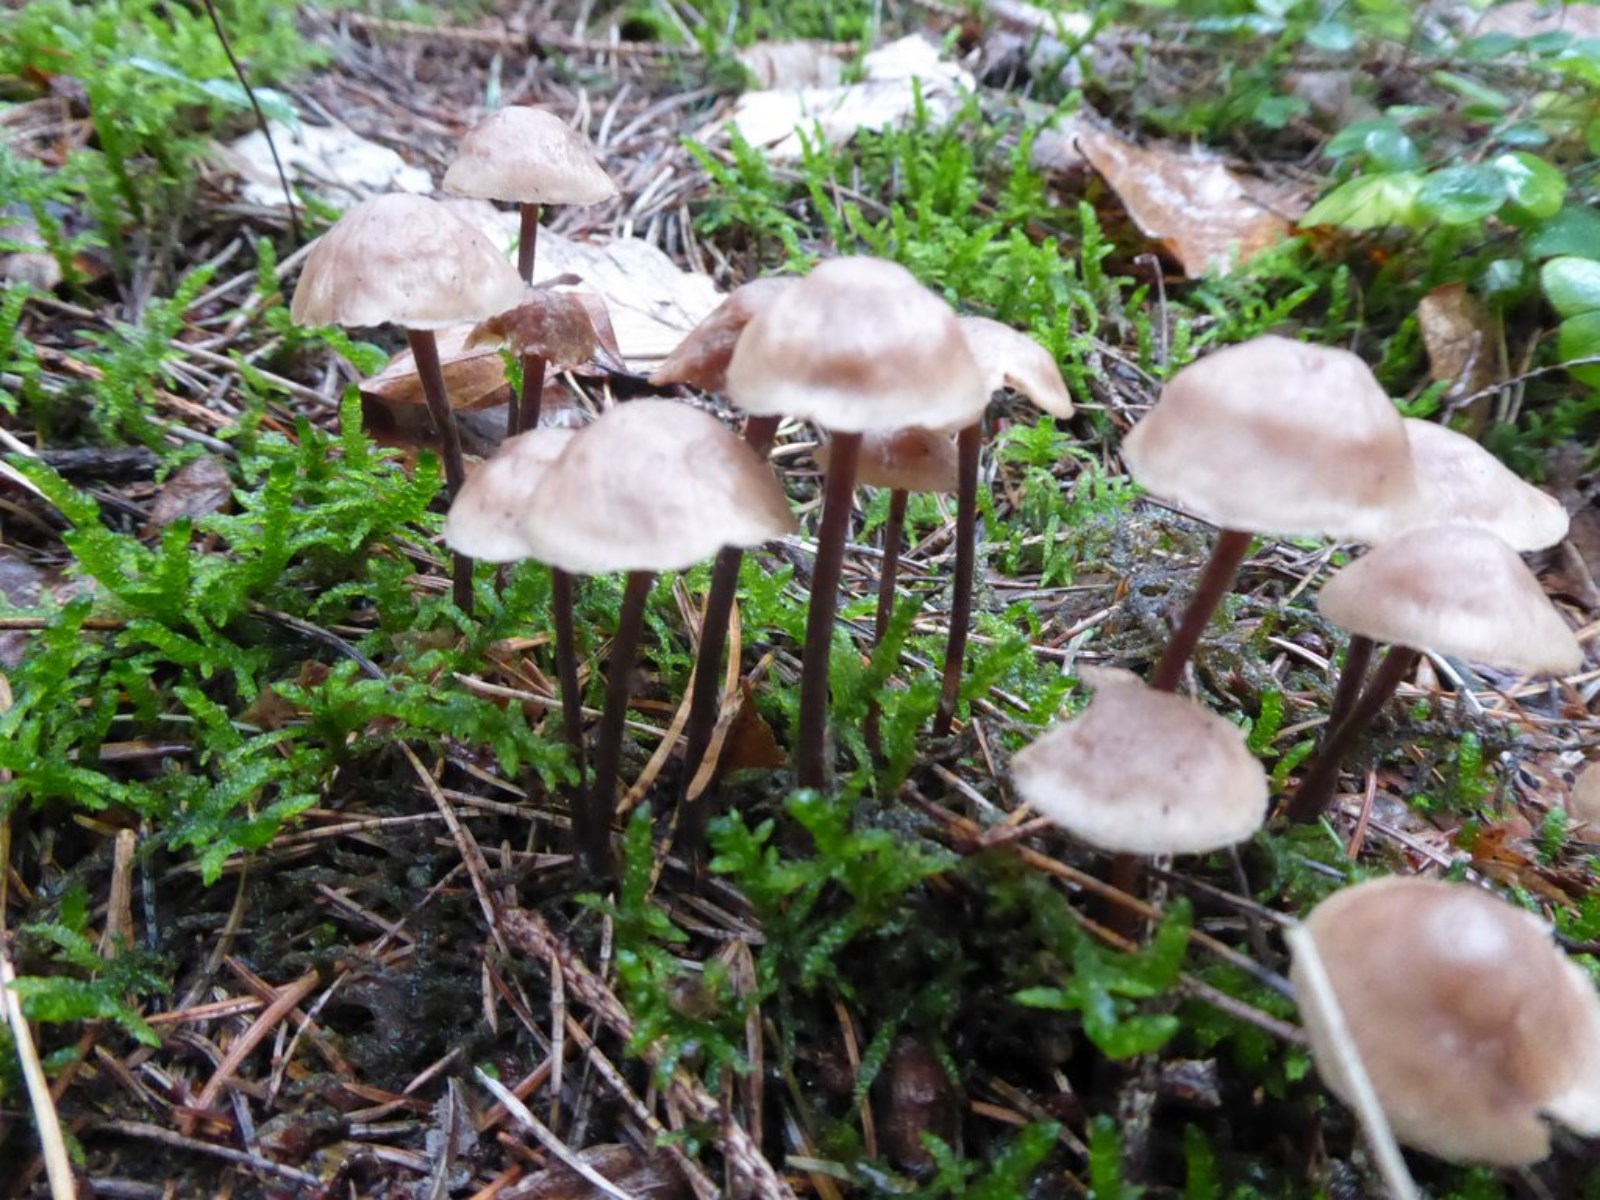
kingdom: Fungi
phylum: Basidiomycota
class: Agaricomycetes
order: Agaricales
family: Omphalotaceae
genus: Collybiopsis
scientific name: Collybiopsis confluens
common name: knippe-fladhat
